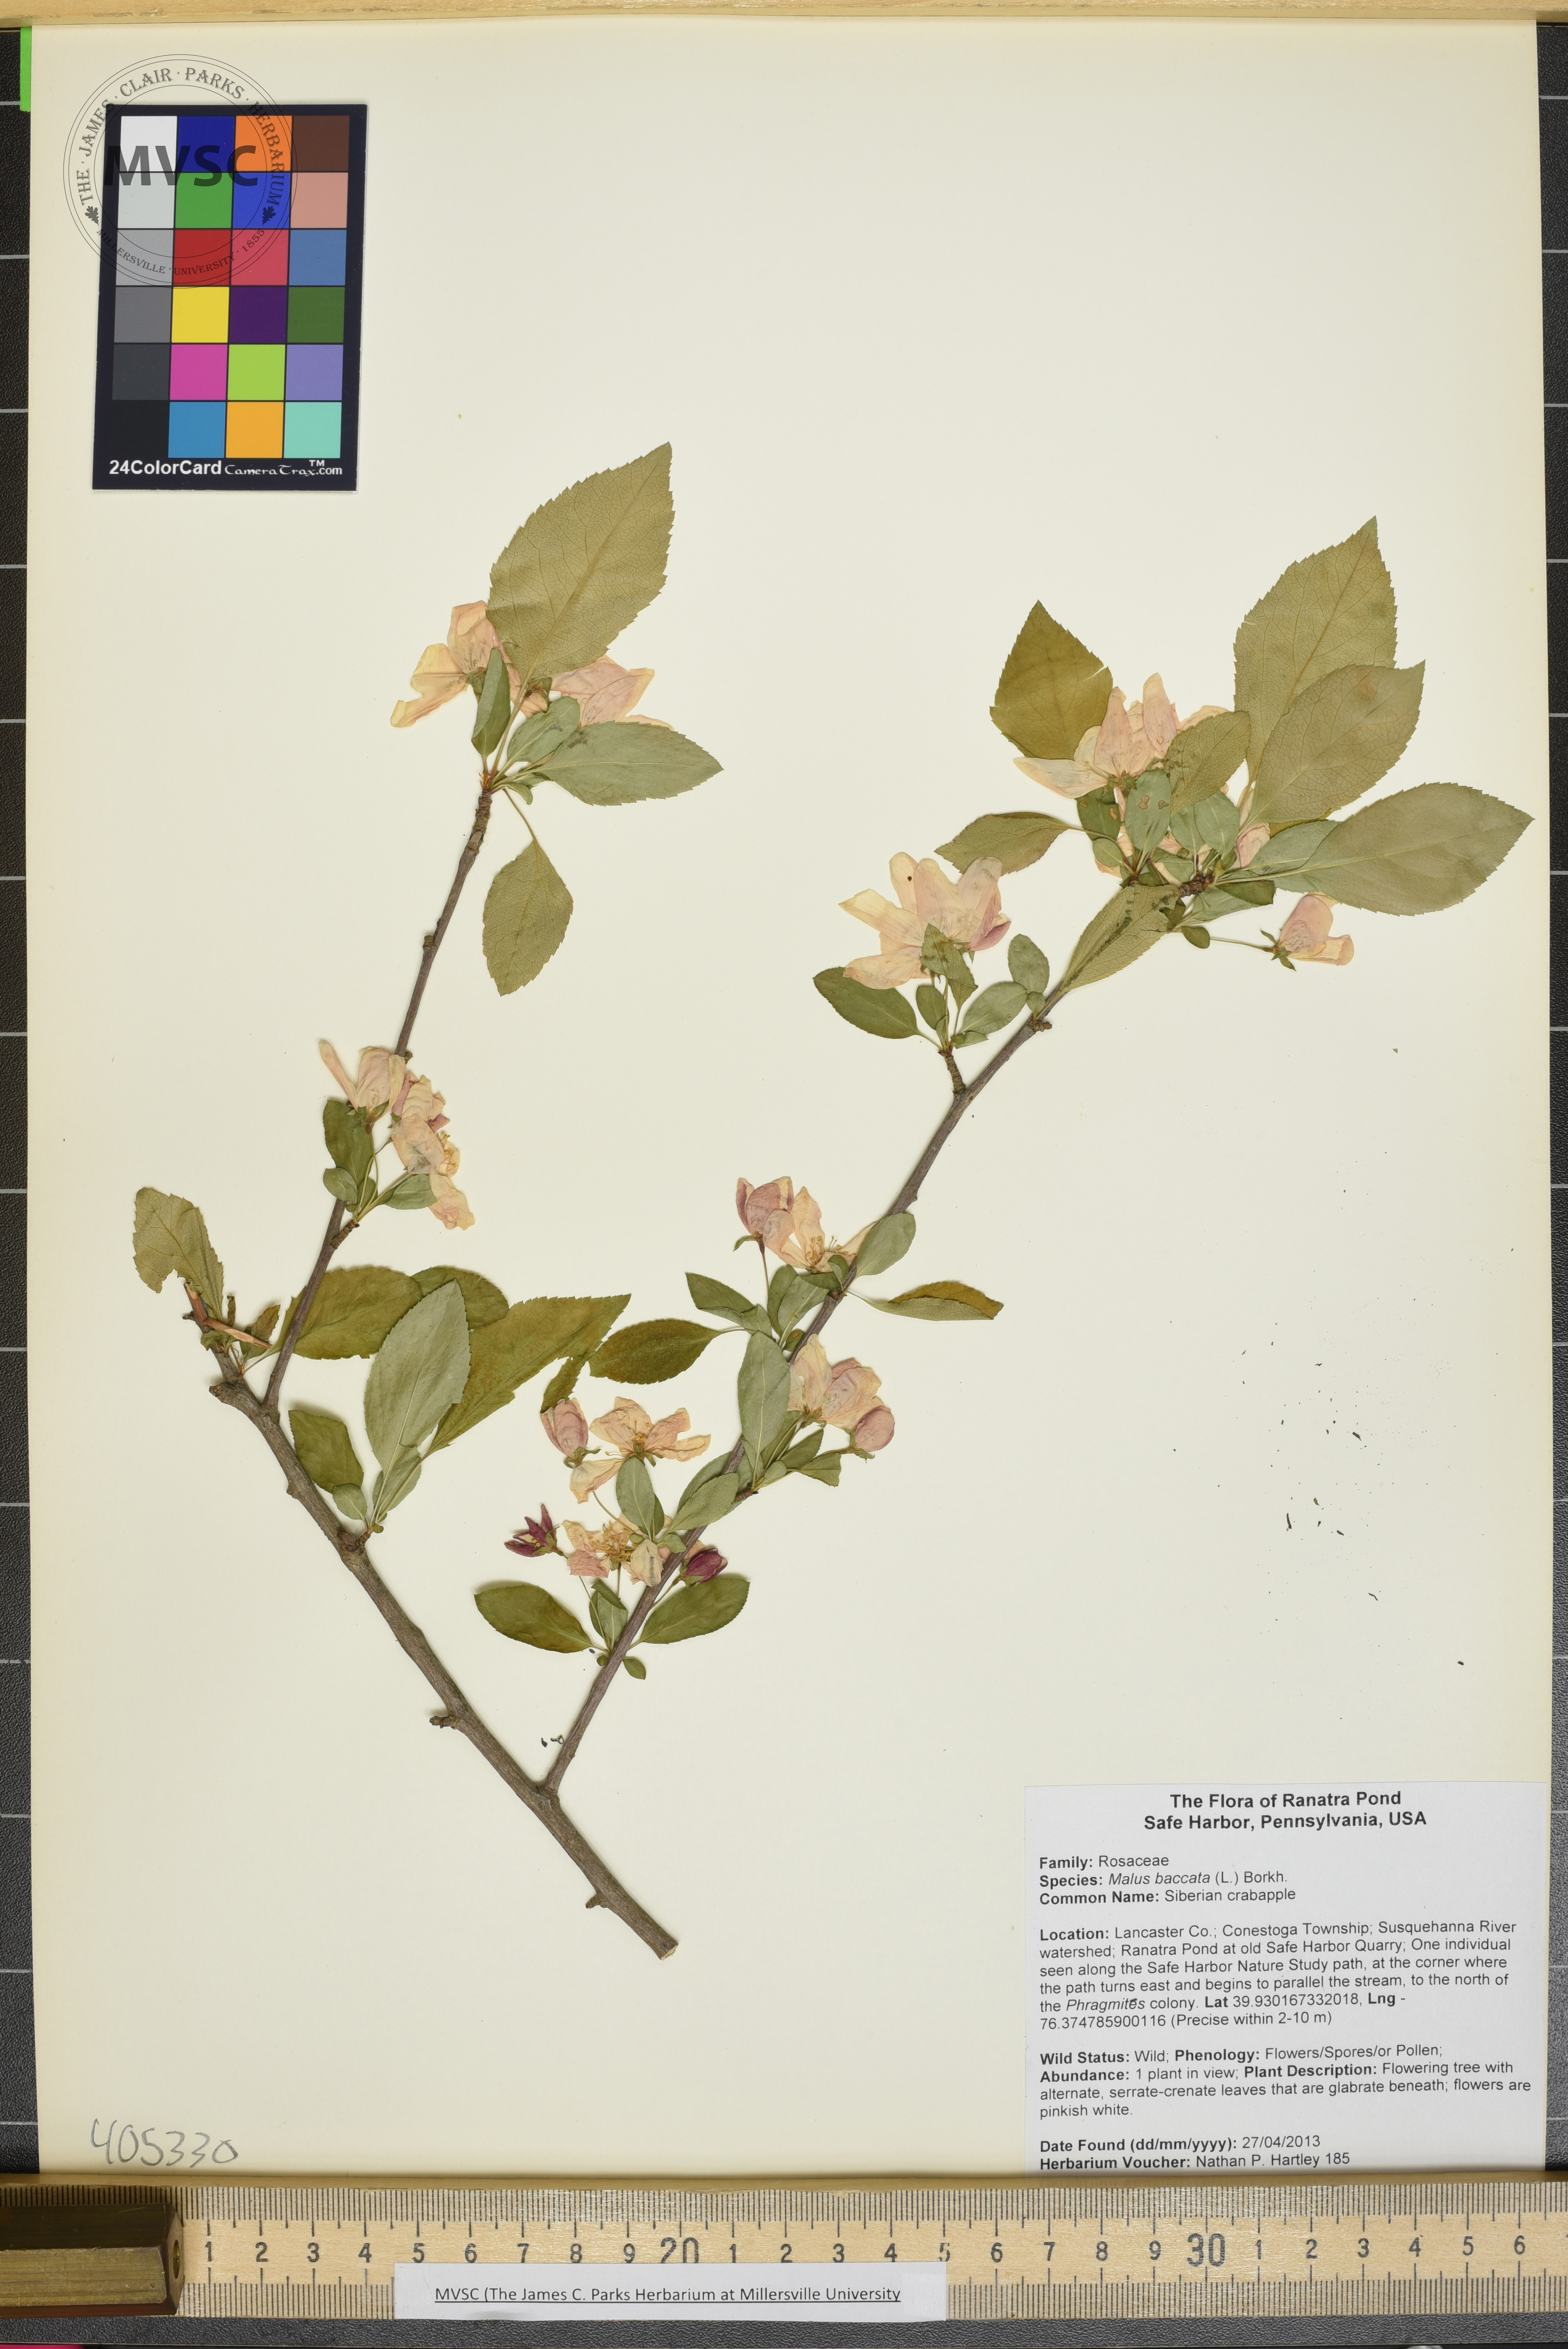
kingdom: Plantae
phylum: Tracheophyta
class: Magnoliopsida
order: Rosales
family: Rosaceae
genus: Malus
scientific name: Malus baccata
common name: Siberian crabapple
